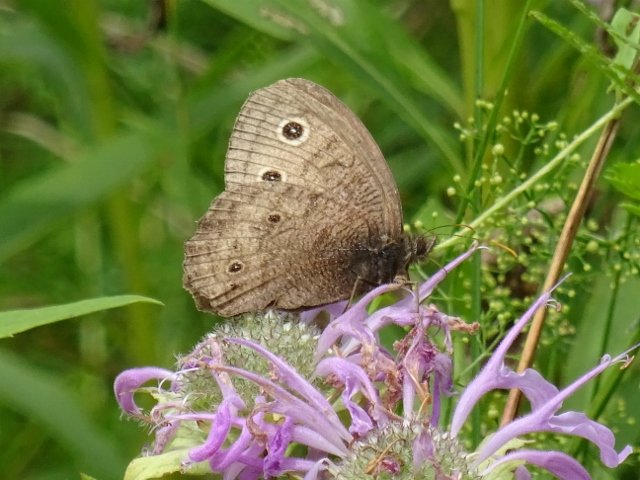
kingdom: Animalia
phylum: Arthropoda
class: Insecta
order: Lepidoptera
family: Nymphalidae
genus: Cercyonis
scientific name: Cercyonis pegala
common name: Common Wood-Nymph
